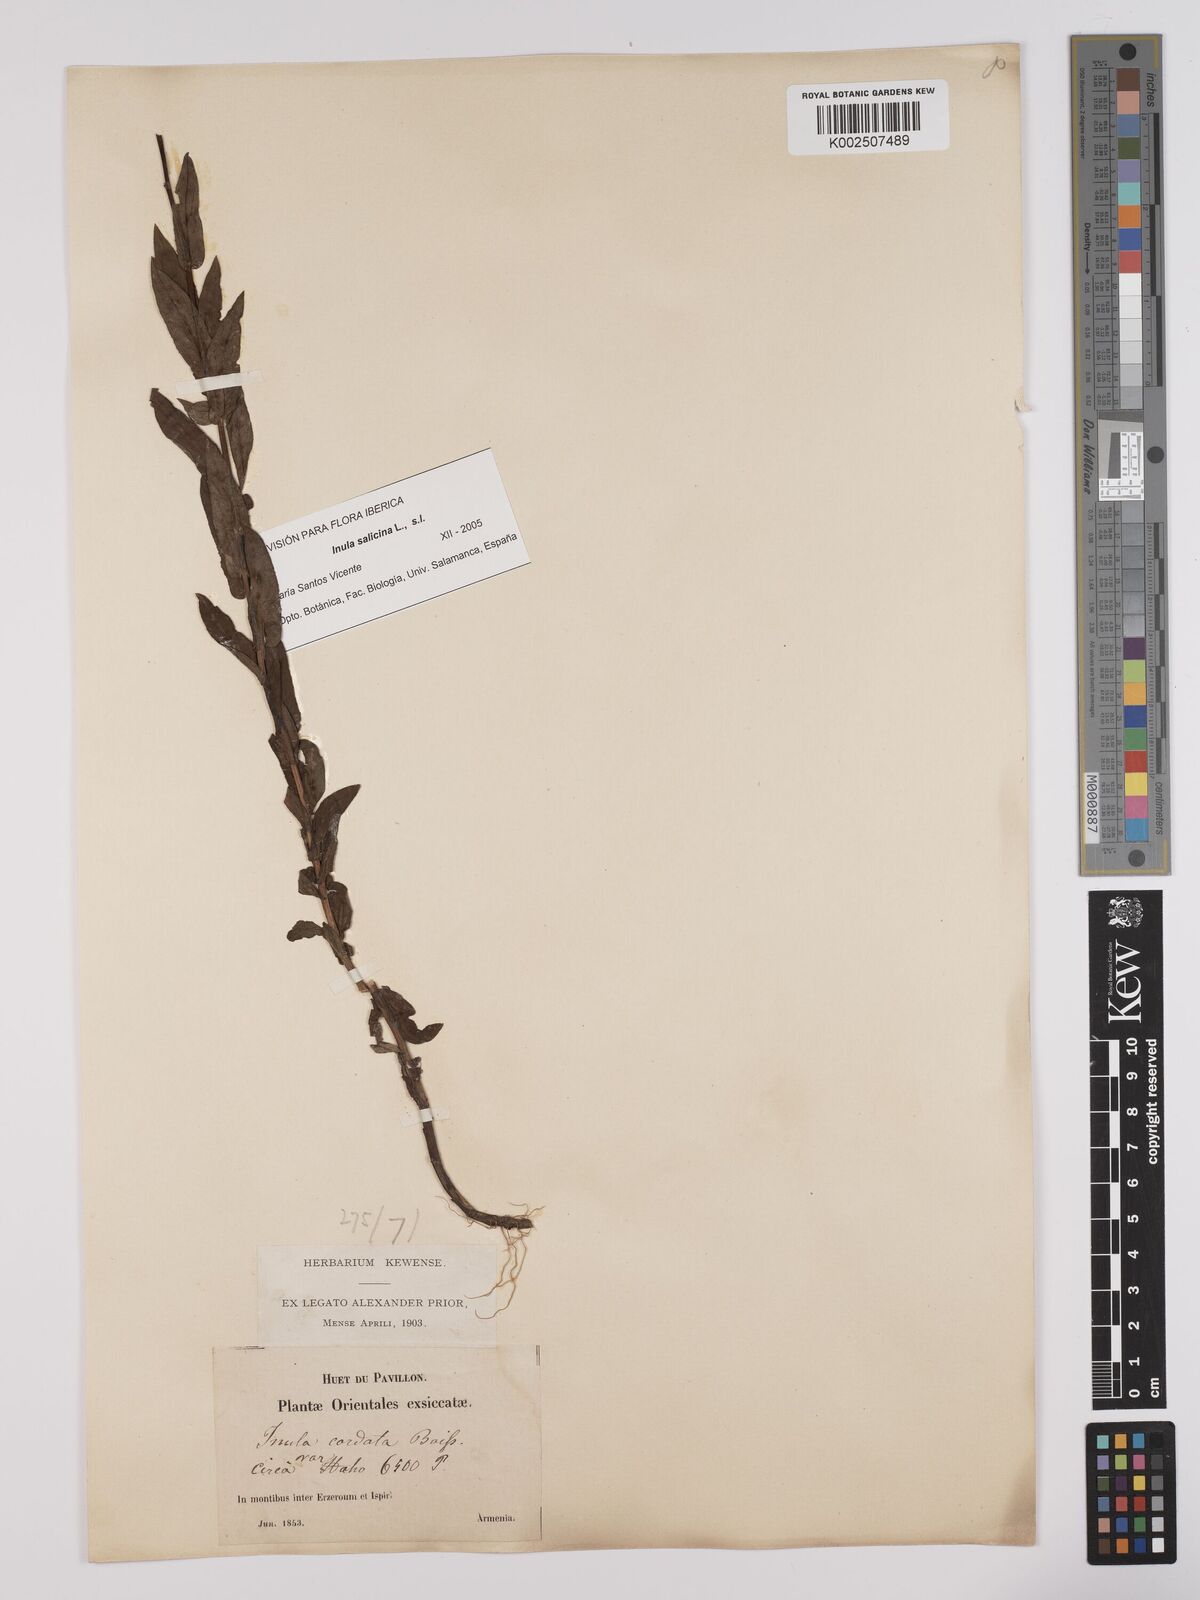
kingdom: Plantae
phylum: Tracheophyta
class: Magnoliopsida
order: Asterales
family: Asteraceae
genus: Pentanema
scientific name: Pentanema salicinum
